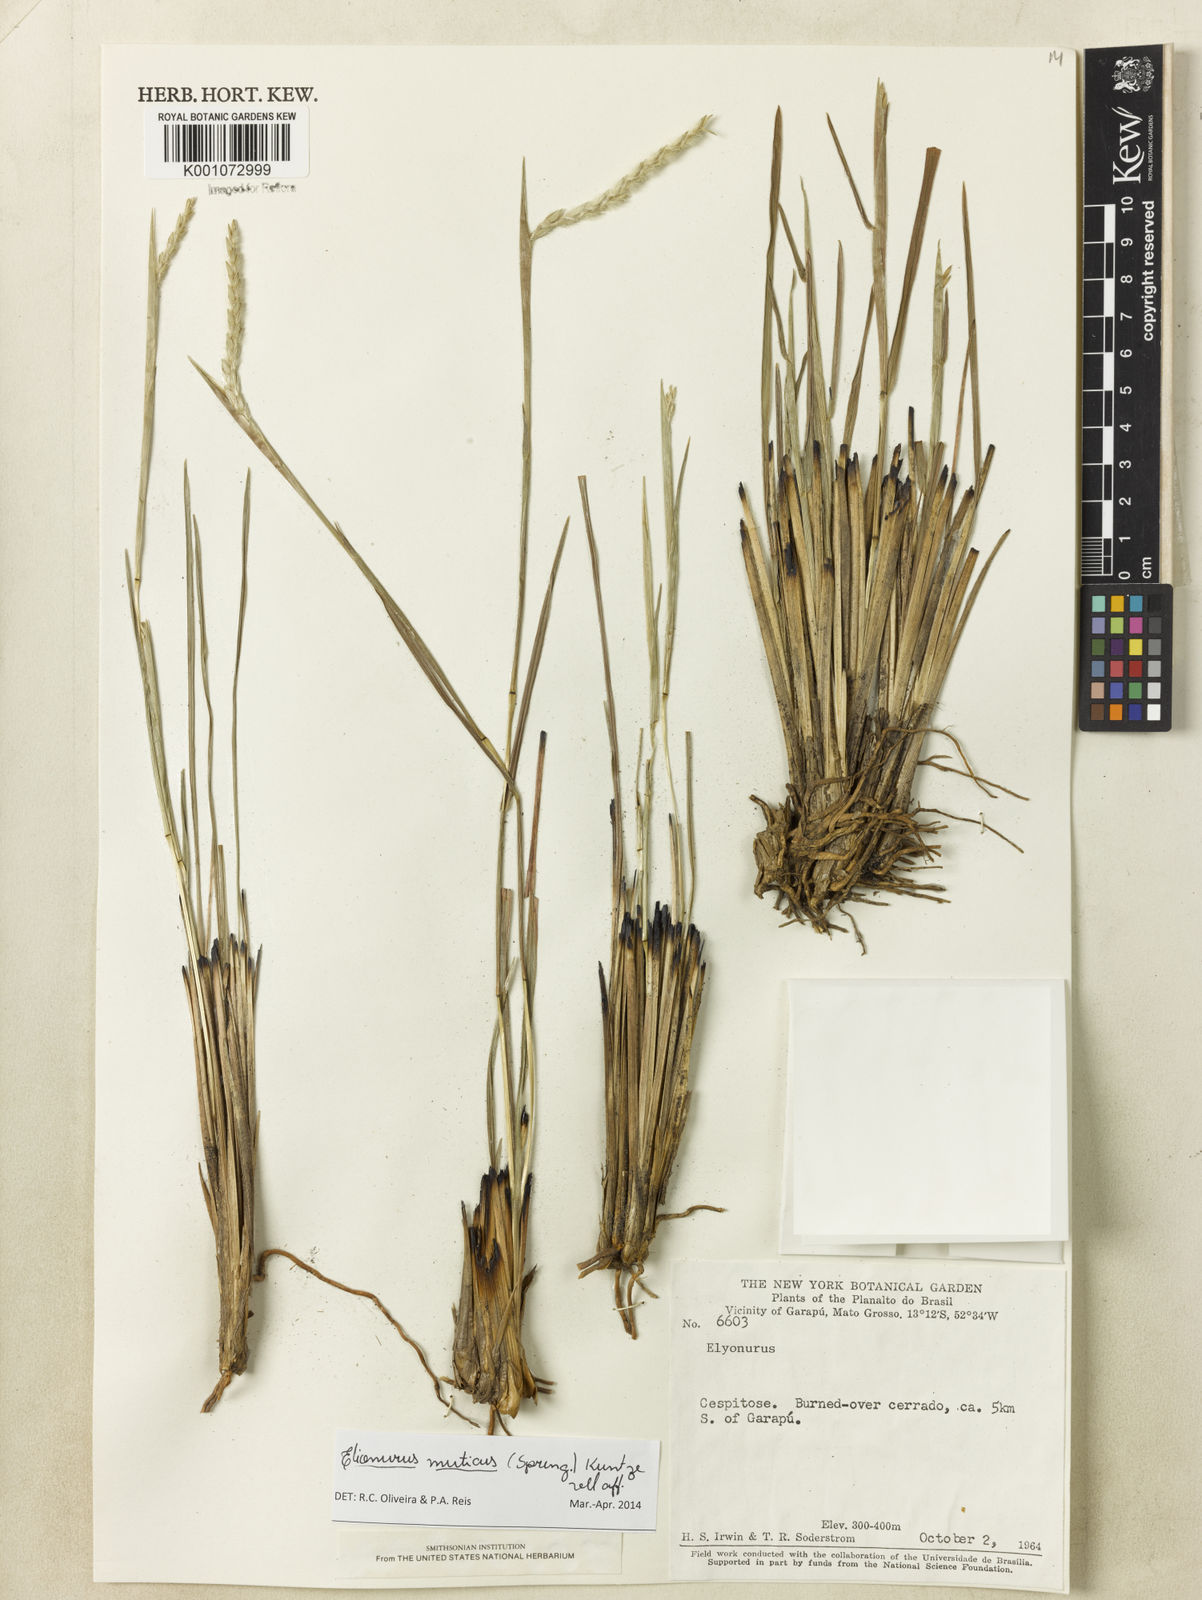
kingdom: Plantae
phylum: Tracheophyta
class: Liliopsida
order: Poales
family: Poaceae
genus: Elionurus
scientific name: Elionurus muticus
